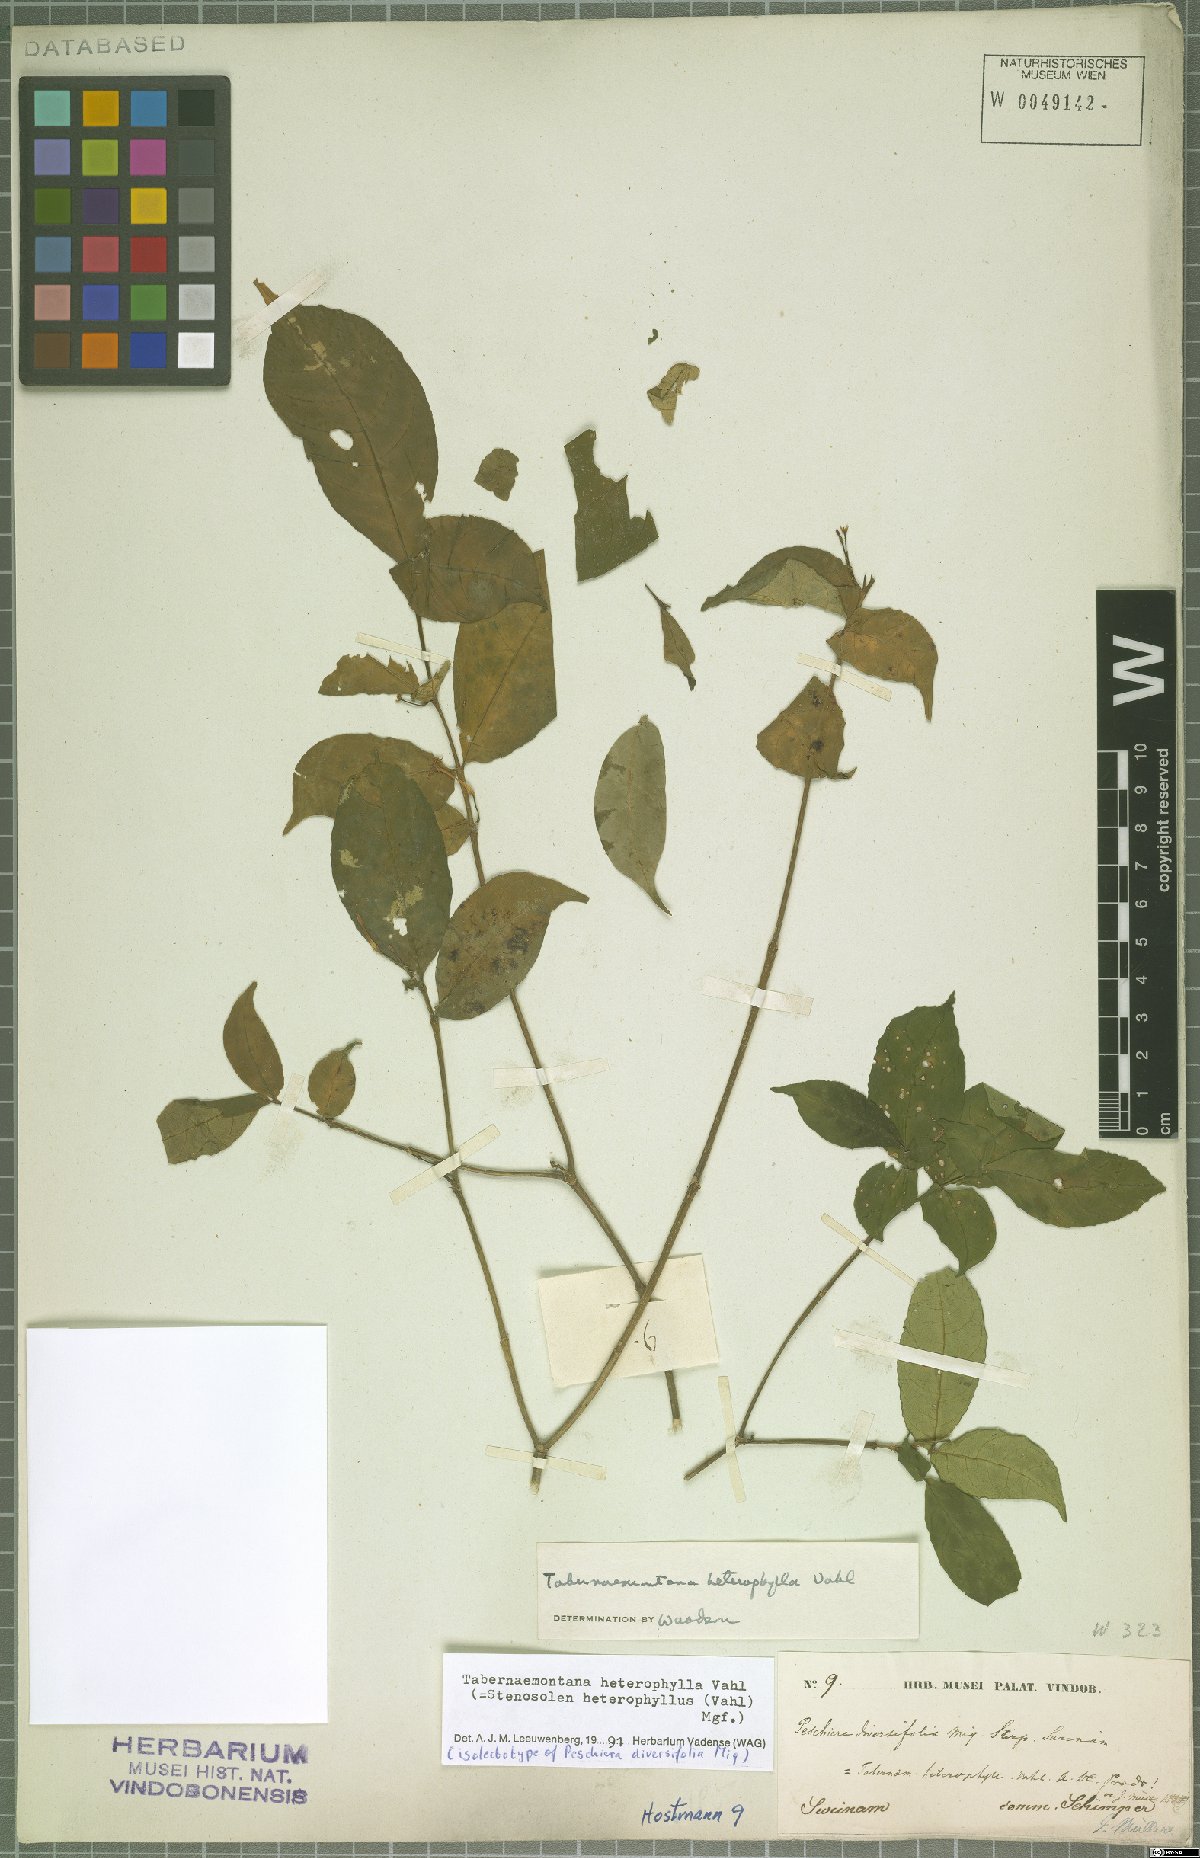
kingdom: Plantae
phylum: Tracheophyta
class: Magnoliopsida
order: Gentianales
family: Apocynaceae
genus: Tabernaemontana
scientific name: Tabernaemontana heterophylla
